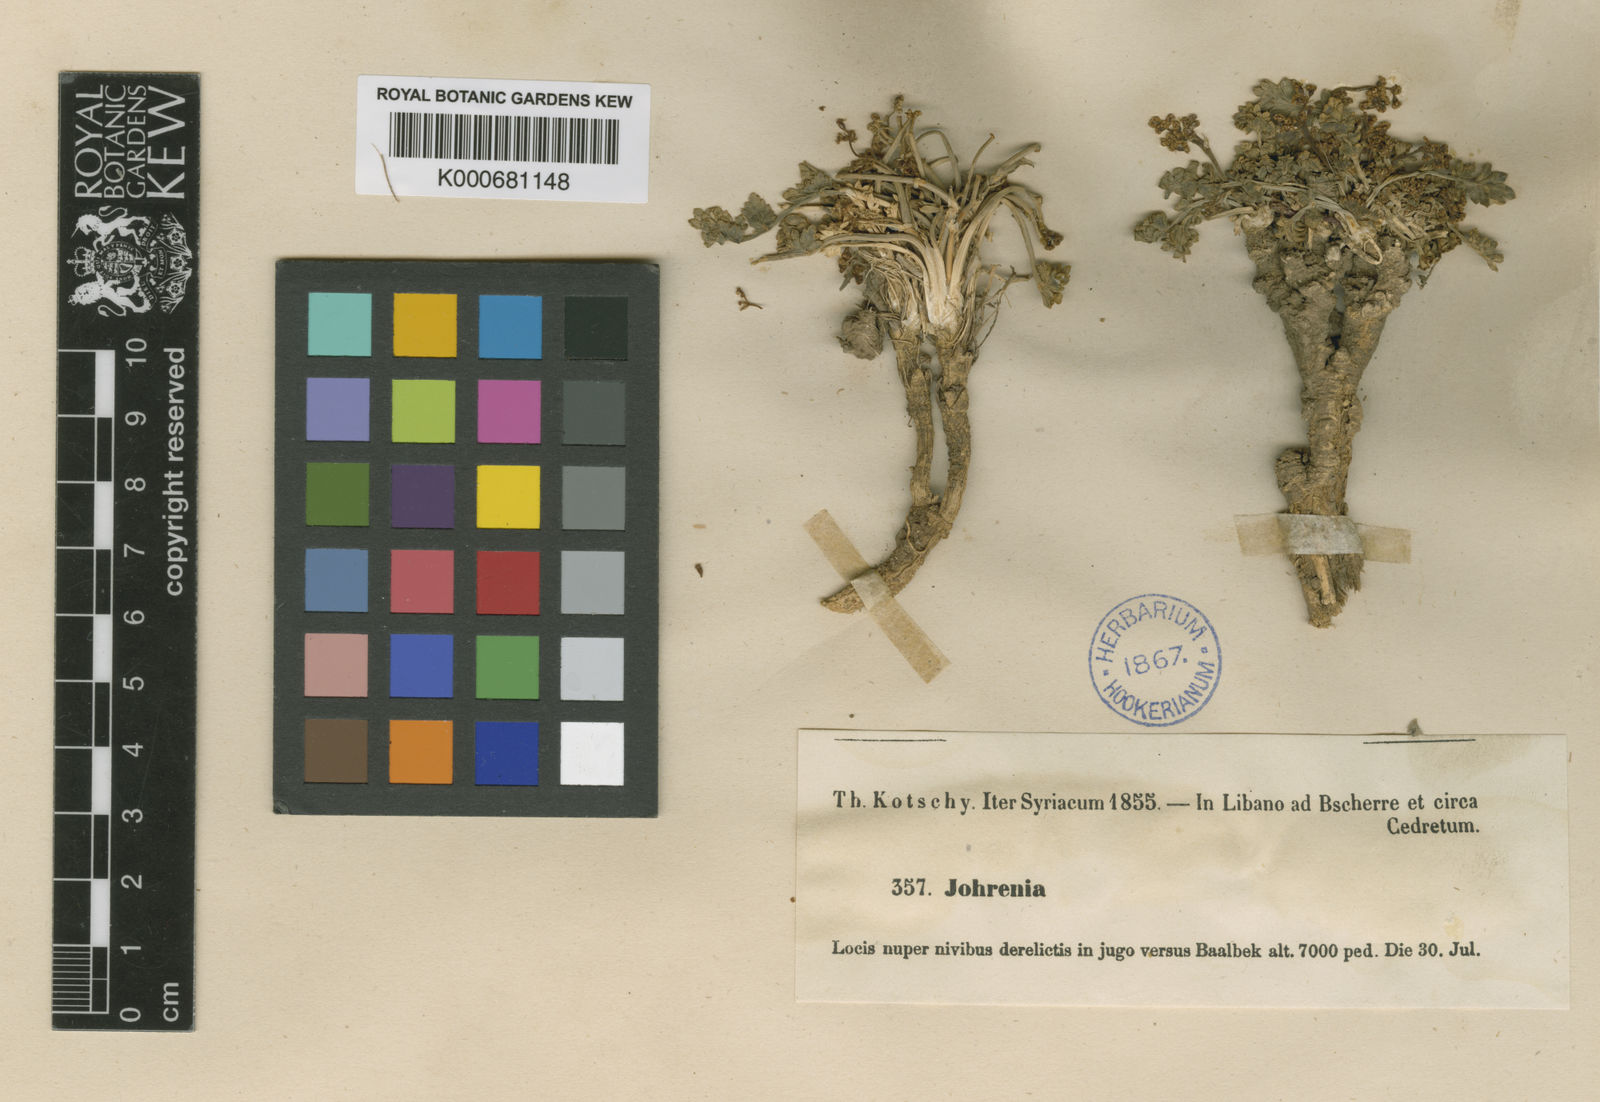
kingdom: Plantae
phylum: Tracheophyta
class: Magnoliopsida
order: Apiales
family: Apiaceae
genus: Dichoropetalum
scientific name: Dichoropetalum alpinum
